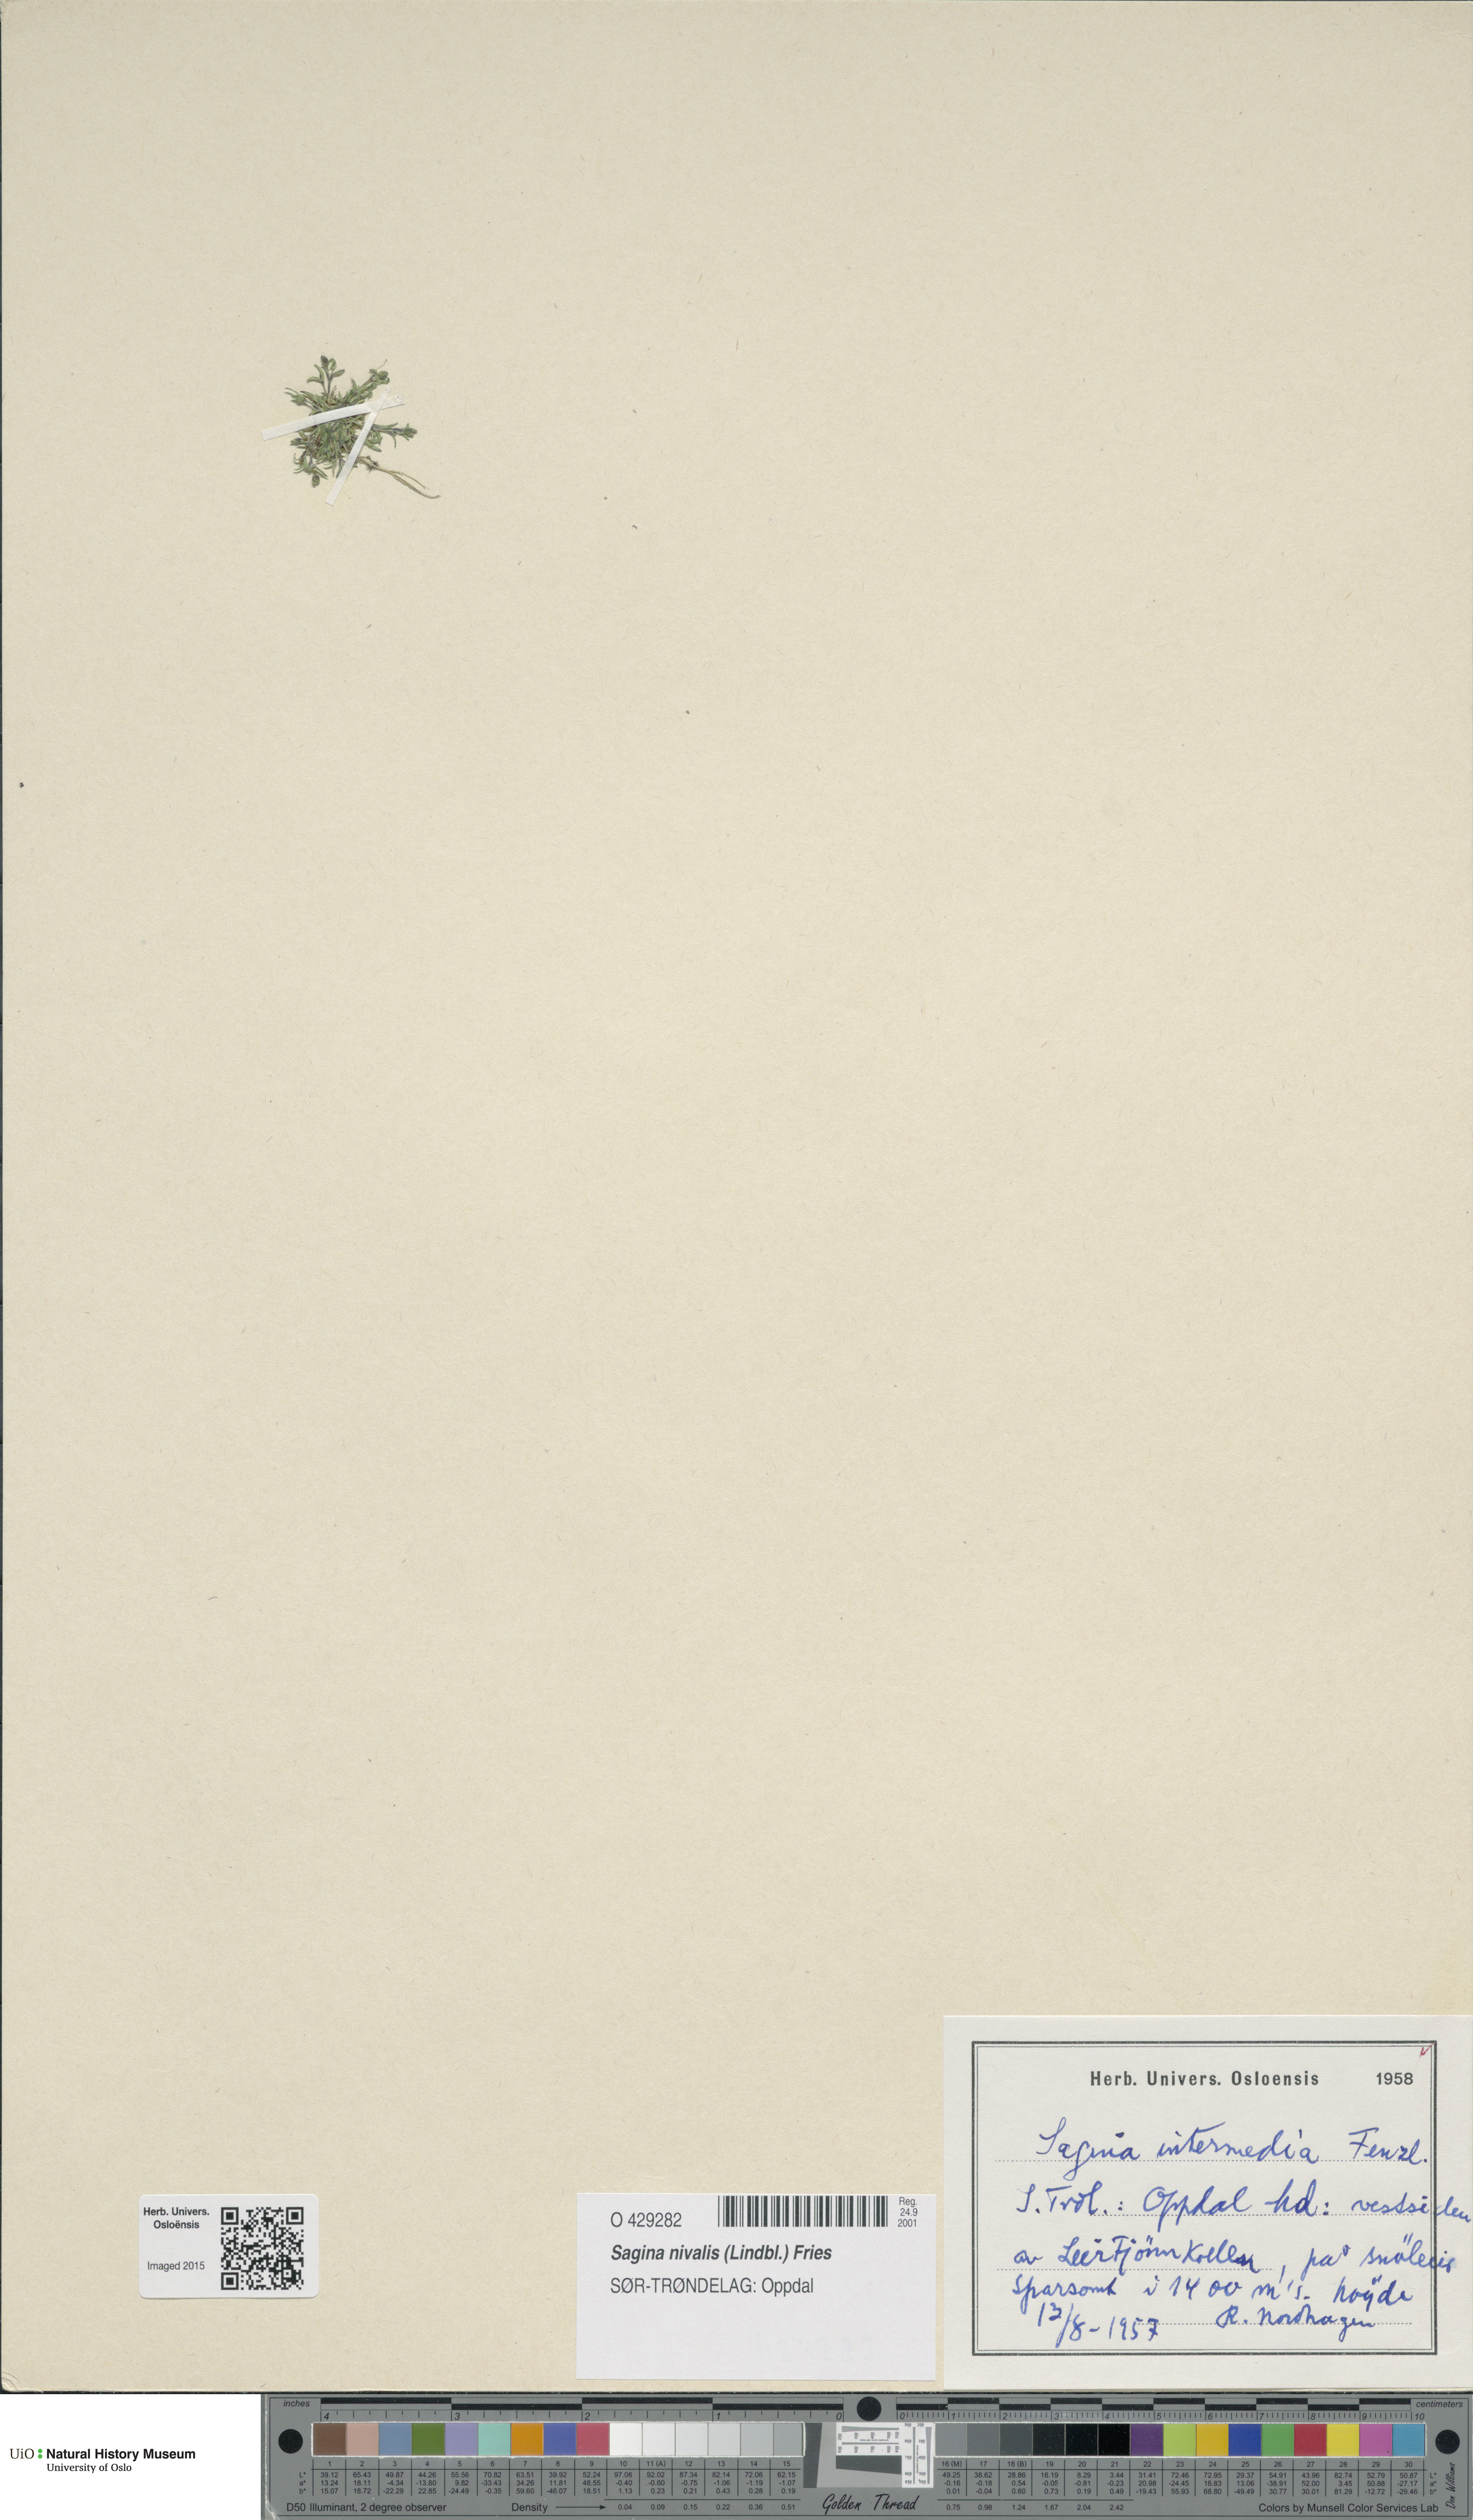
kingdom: Plantae
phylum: Tracheophyta
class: Magnoliopsida
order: Caryophyllales
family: Caryophyllaceae
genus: Sagina
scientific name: Sagina nivalis
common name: Snow pearlwort
